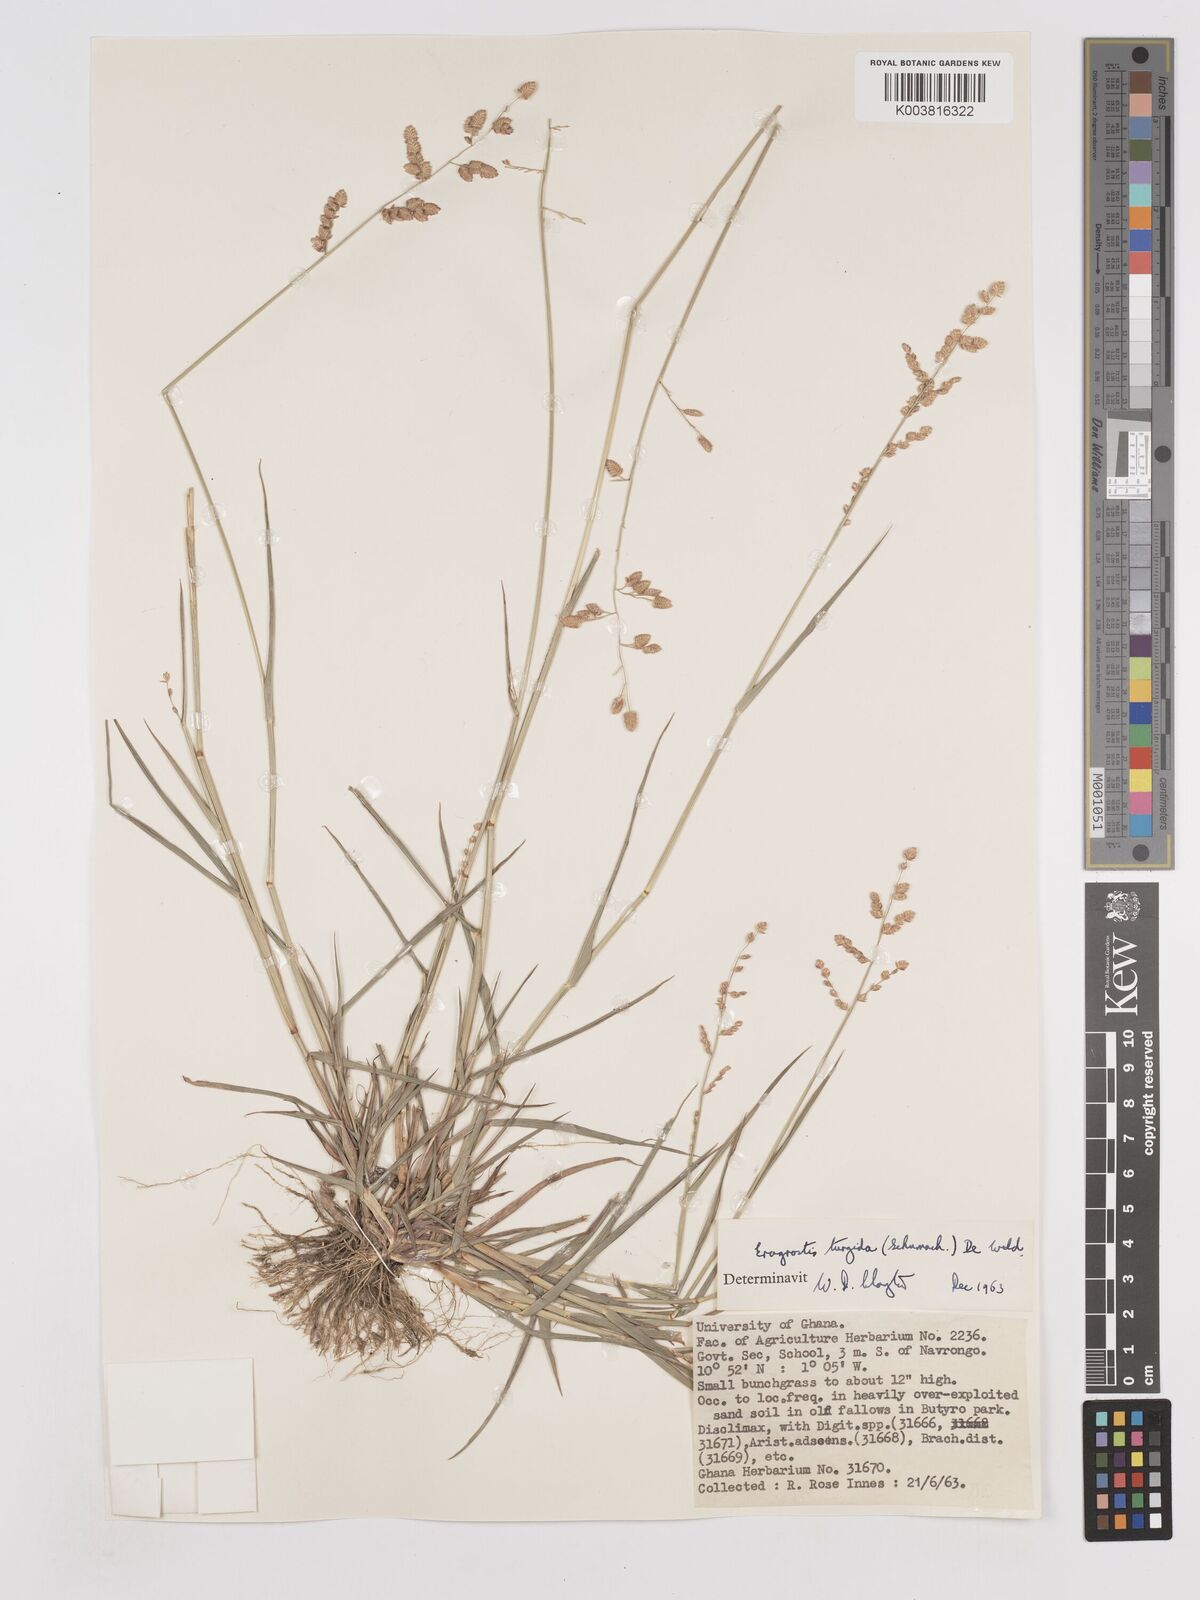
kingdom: Plantae
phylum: Tracheophyta
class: Liliopsida
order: Poales
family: Poaceae
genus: Eragrostis
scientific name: Eragrostis turgida
